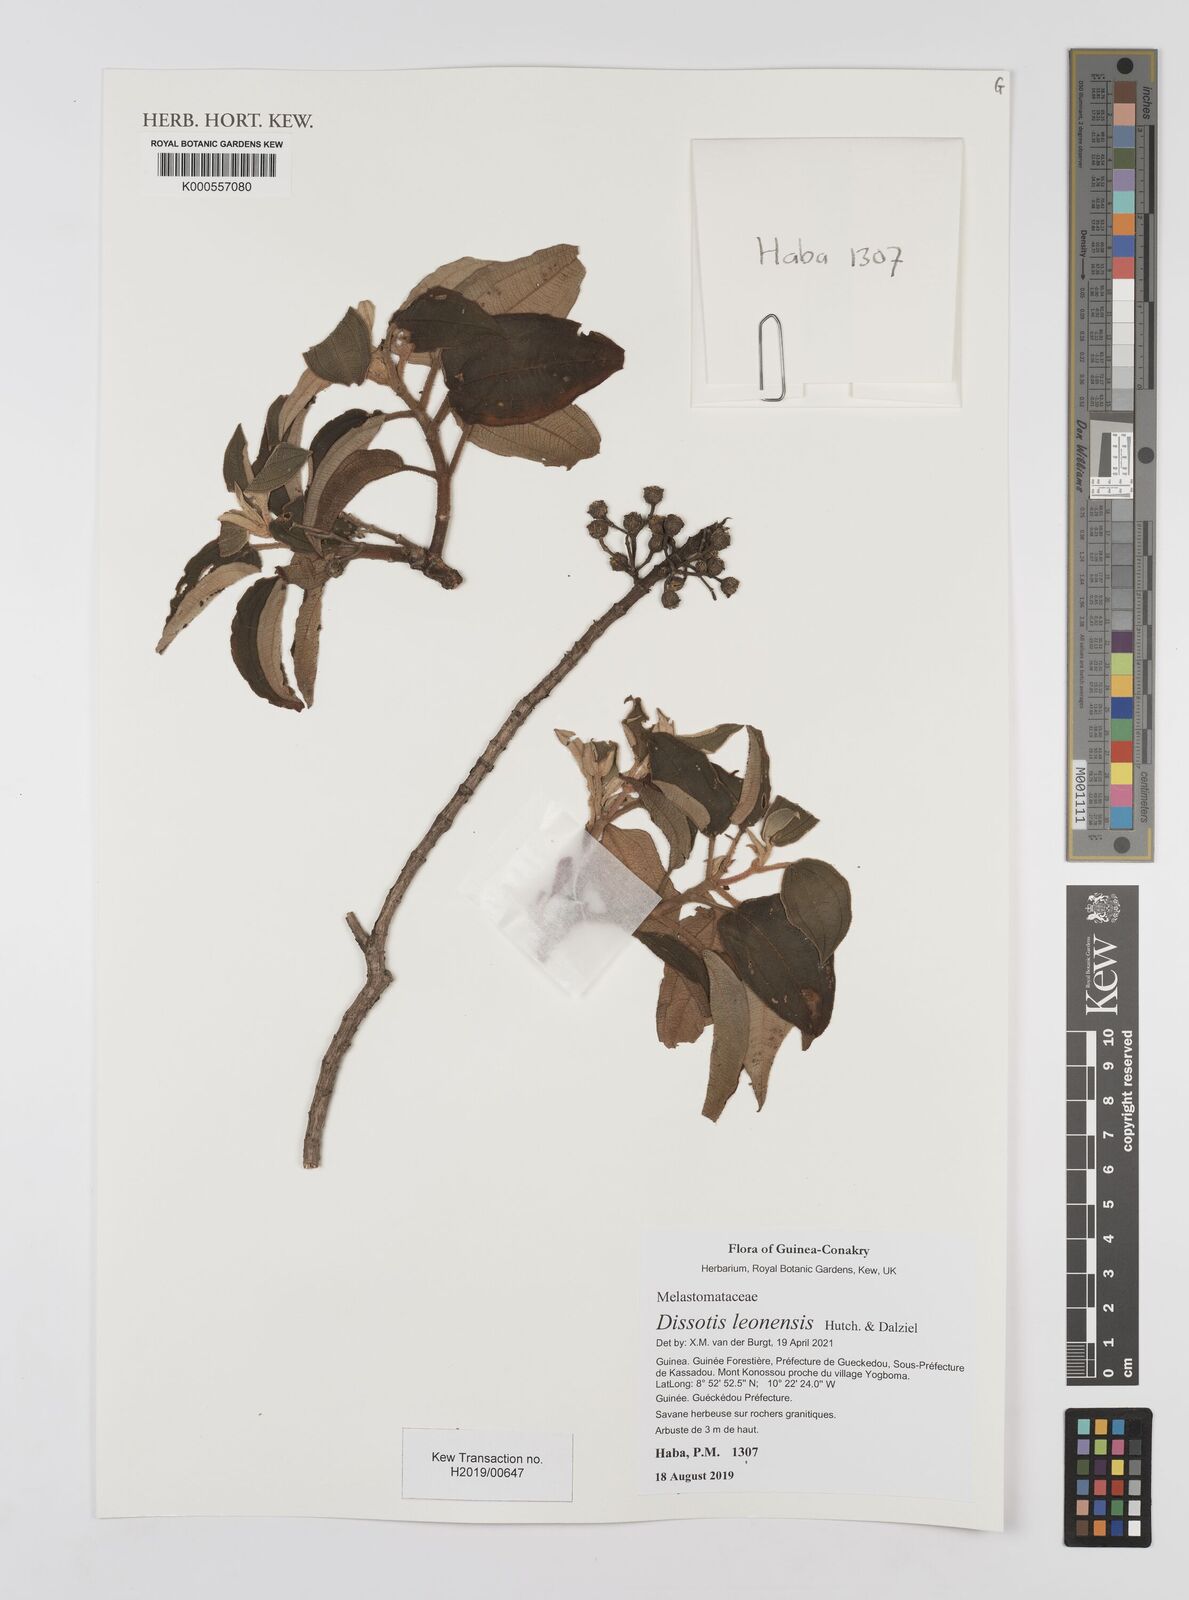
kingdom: Plantae
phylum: Tracheophyta
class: Magnoliopsida
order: Myrtales
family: Melastomataceae
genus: Dissotis
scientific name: Dissotis leonensis
